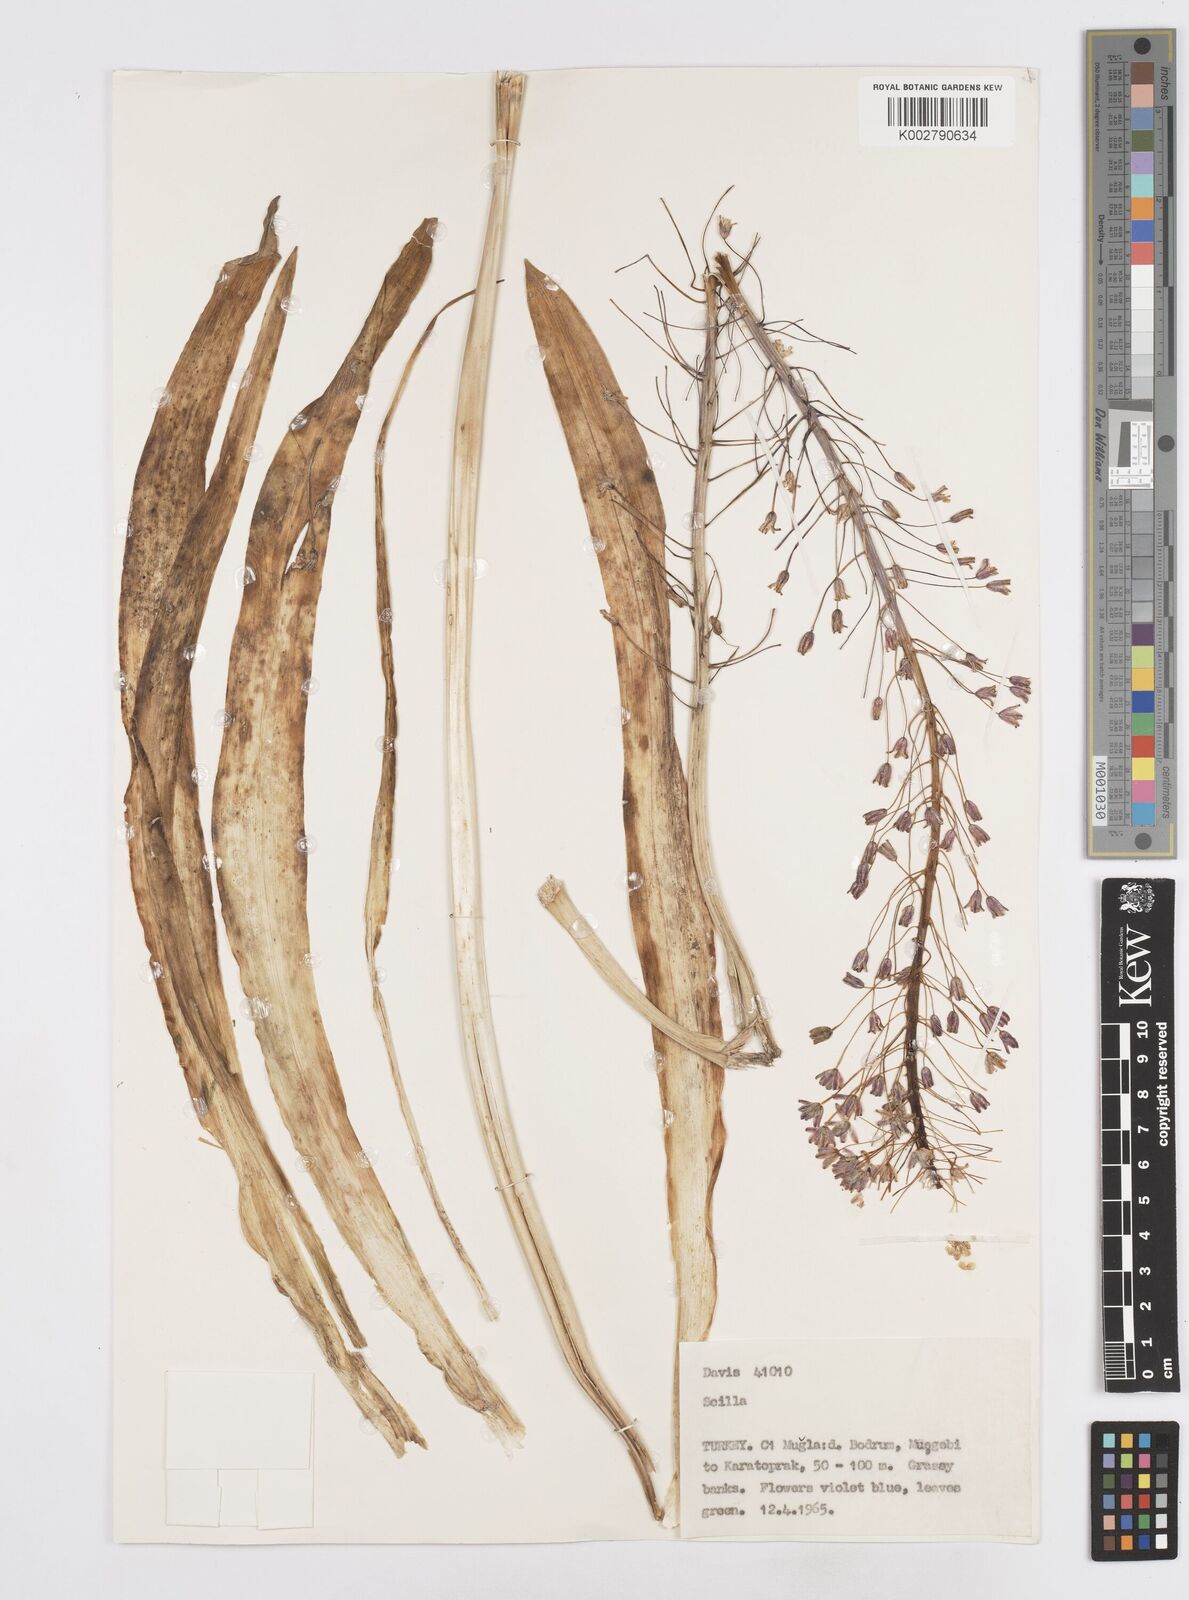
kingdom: Plantae
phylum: Tracheophyta
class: Liliopsida
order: Asparagales
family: Asparagaceae
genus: Scilla
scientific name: Scilla hyacinthoides
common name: Scilla
